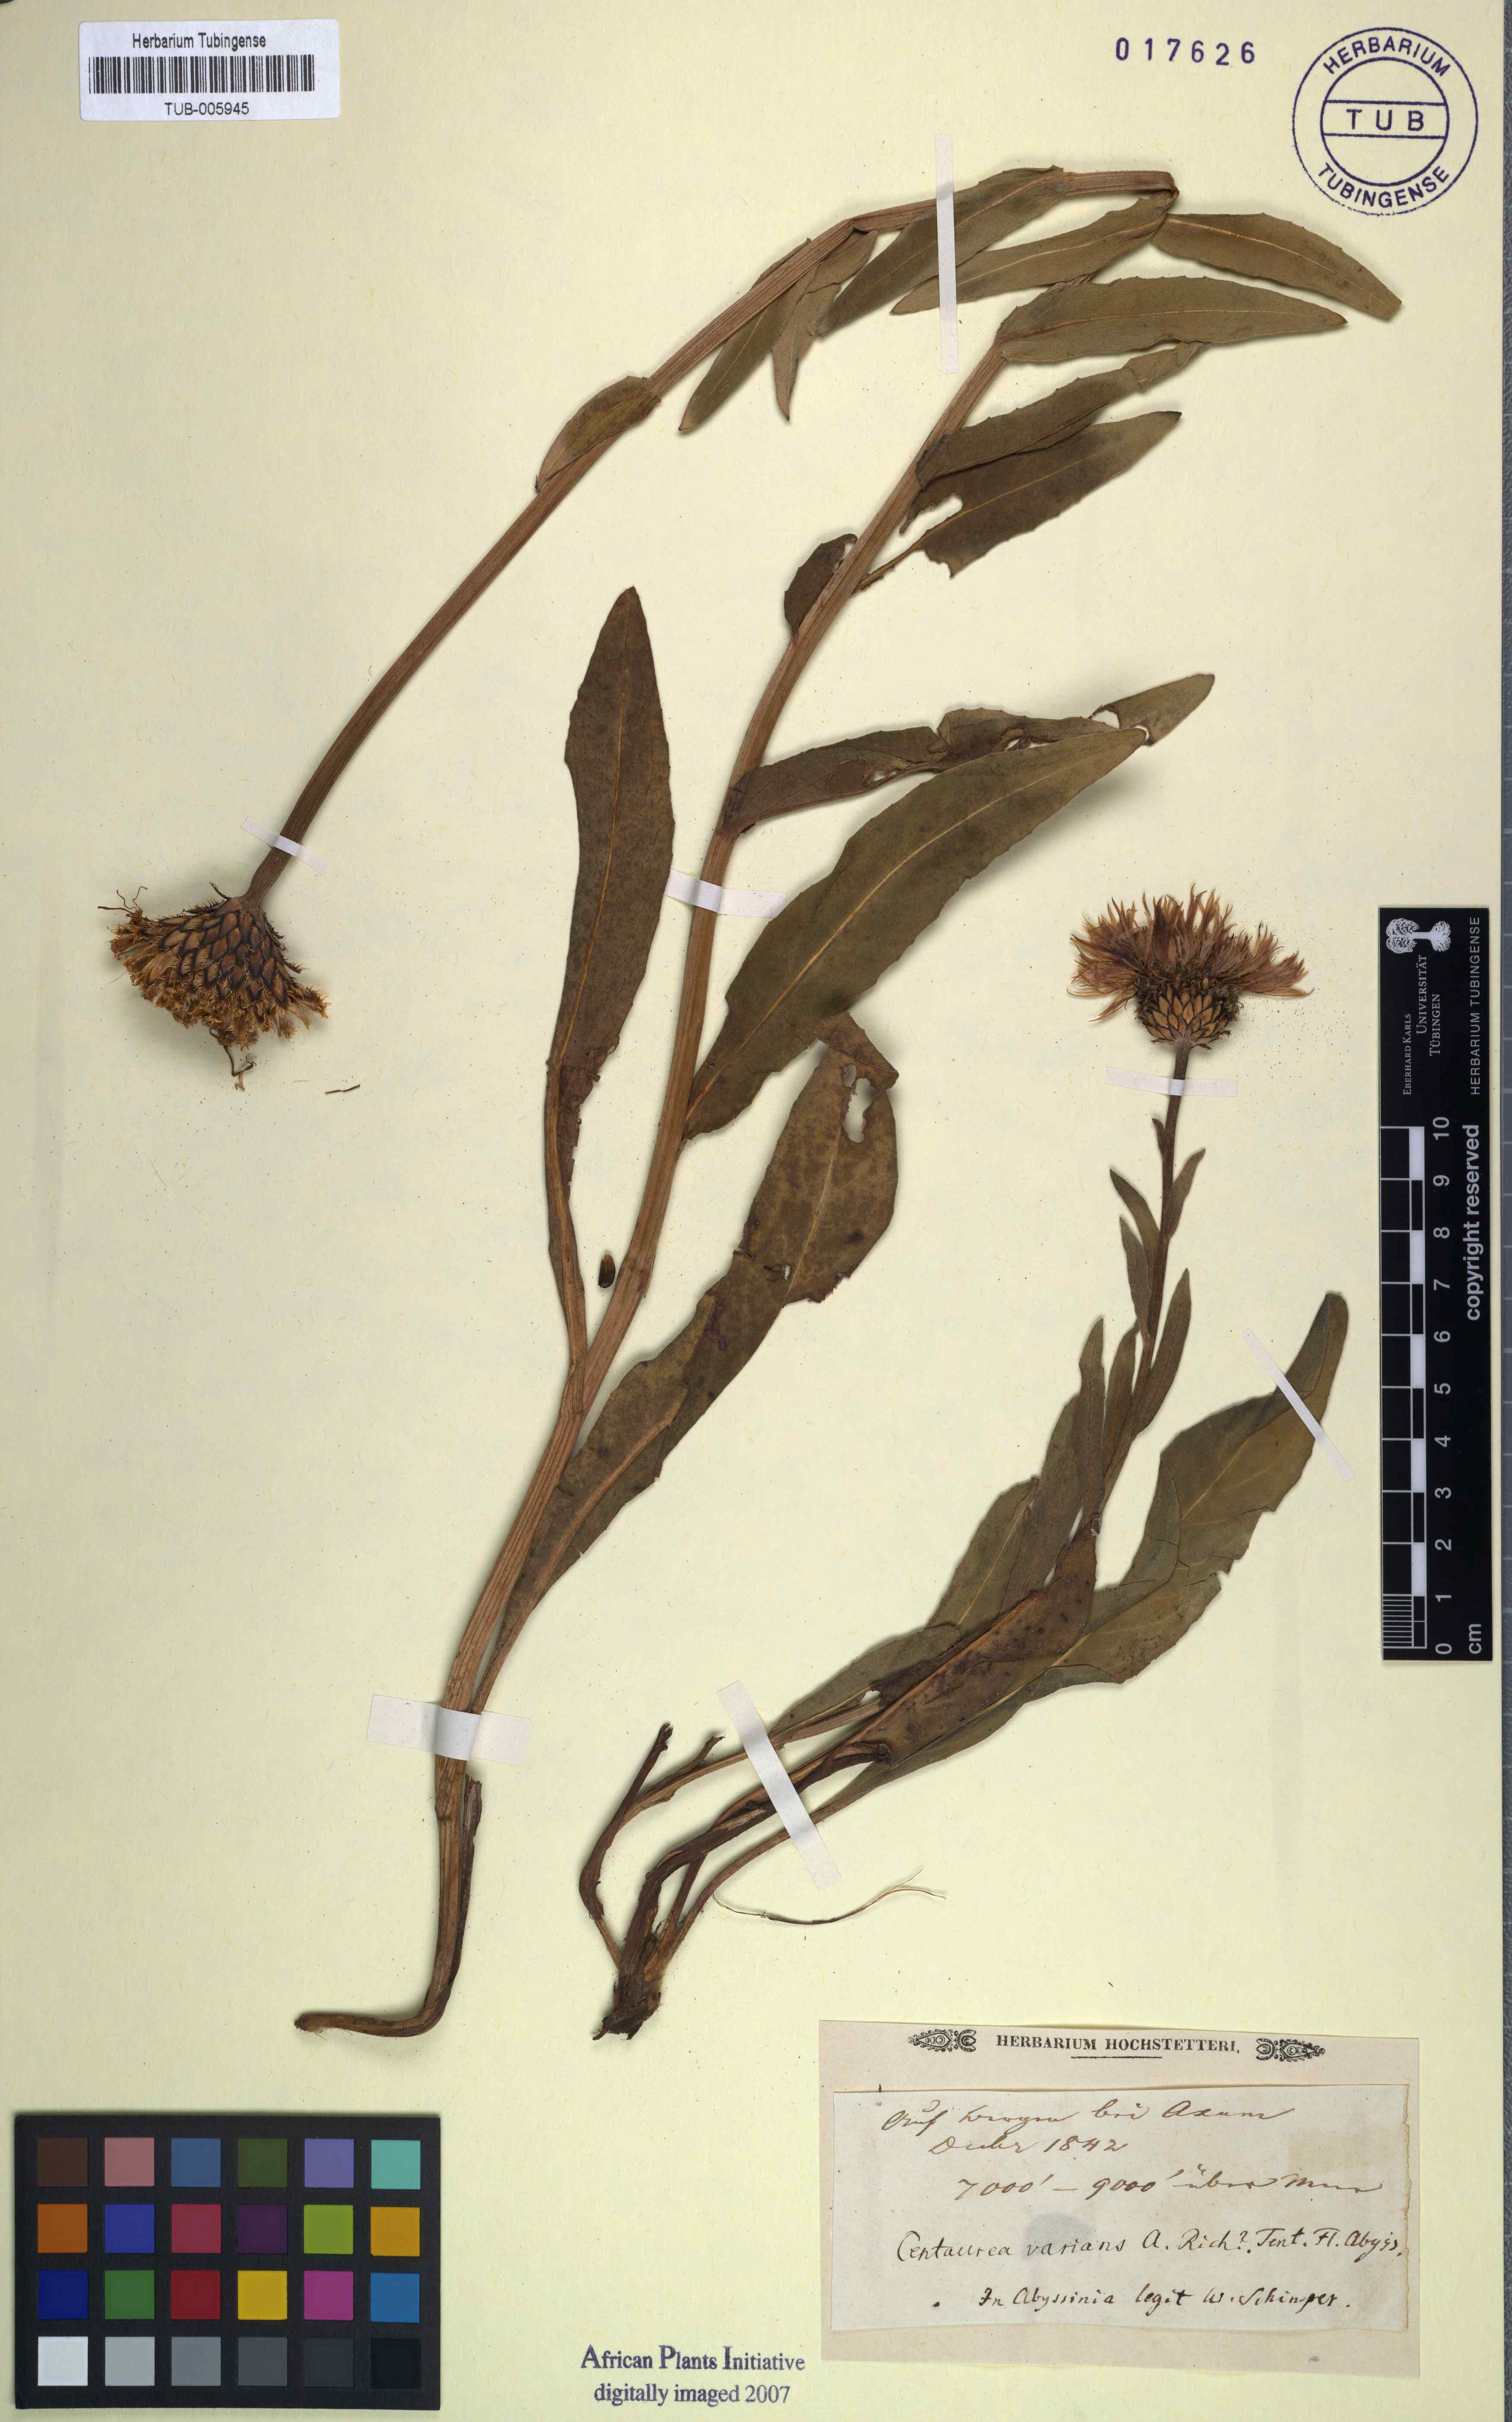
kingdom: Plantae
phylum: Tracheophyta
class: Magnoliopsida
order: Asterales
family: Asteraceae
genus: Plectocephalus
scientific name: Plectocephalus varians
